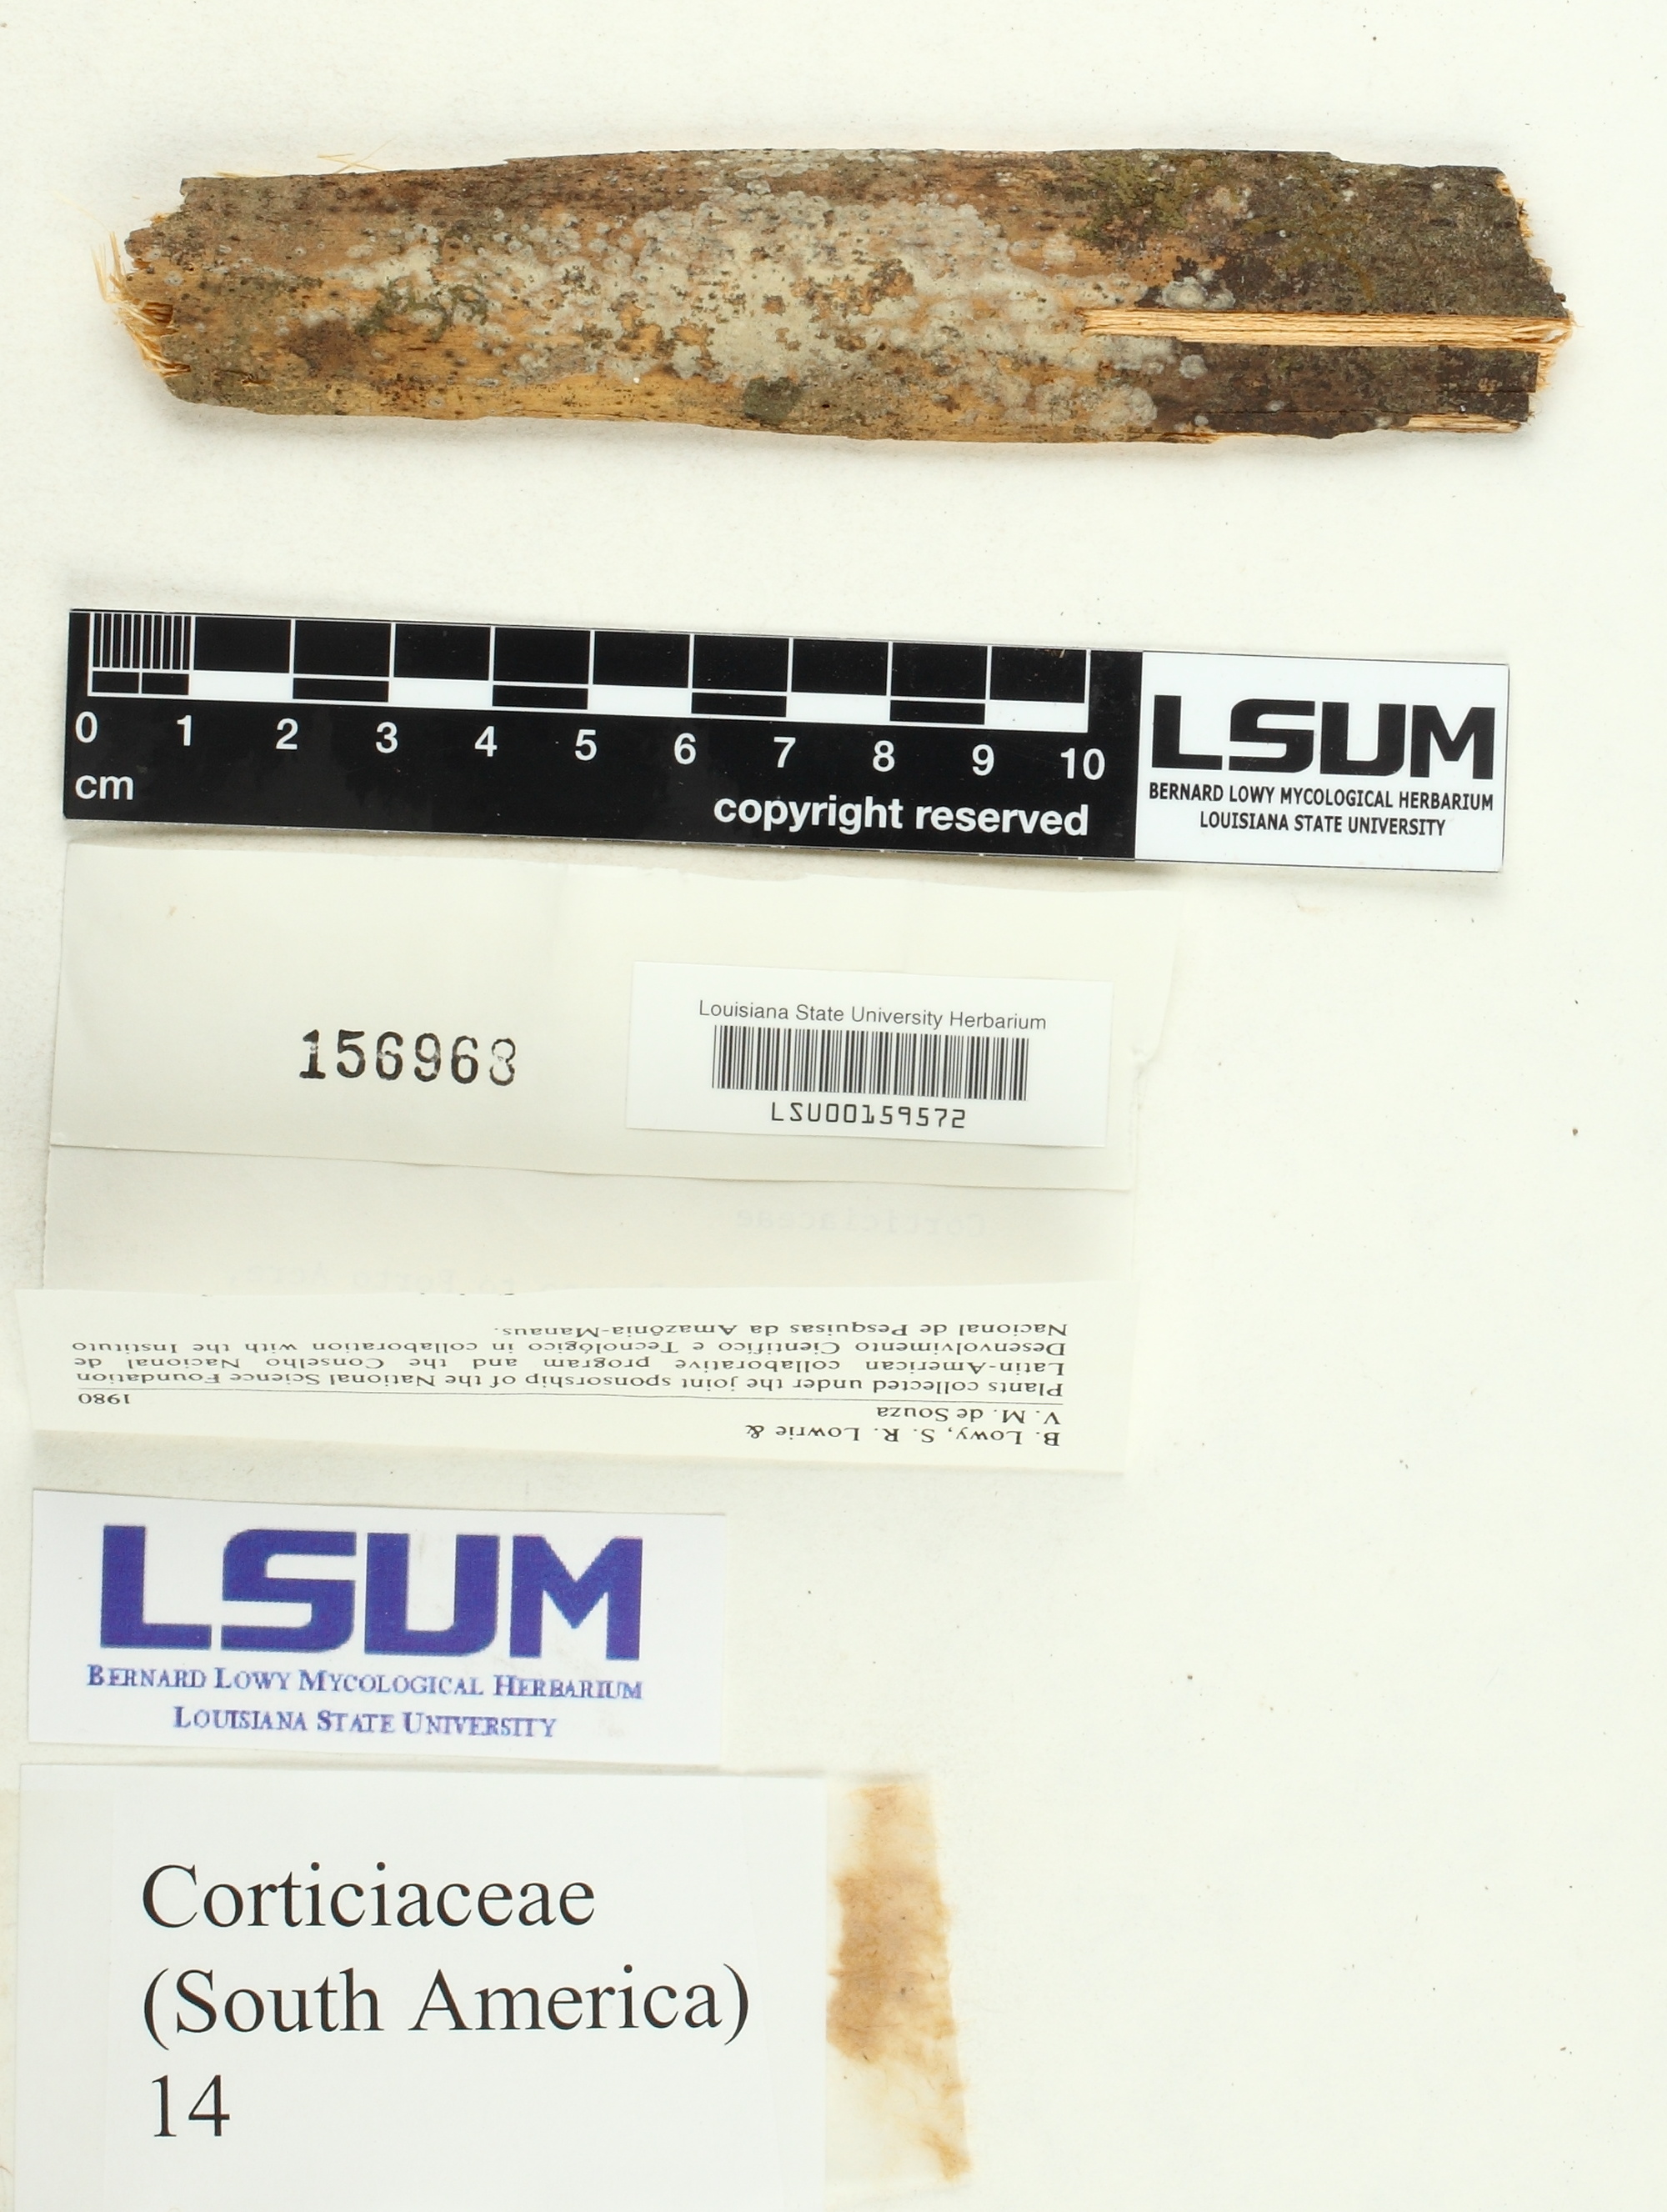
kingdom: Fungi
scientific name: Fungi
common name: Fungi
